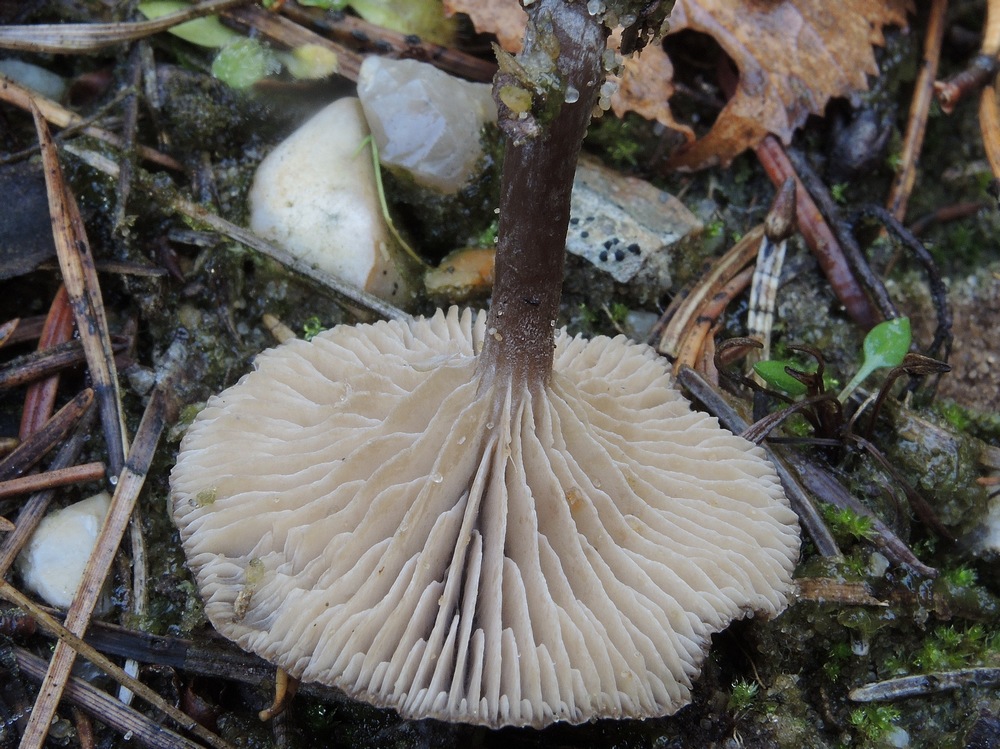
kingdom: Fungi
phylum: Basidiomycota
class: Agaricomycetes
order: Agaricales
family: Entolomataceae
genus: Clitopilus
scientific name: Clitopilus caelatus
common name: gråbrun troldhat
